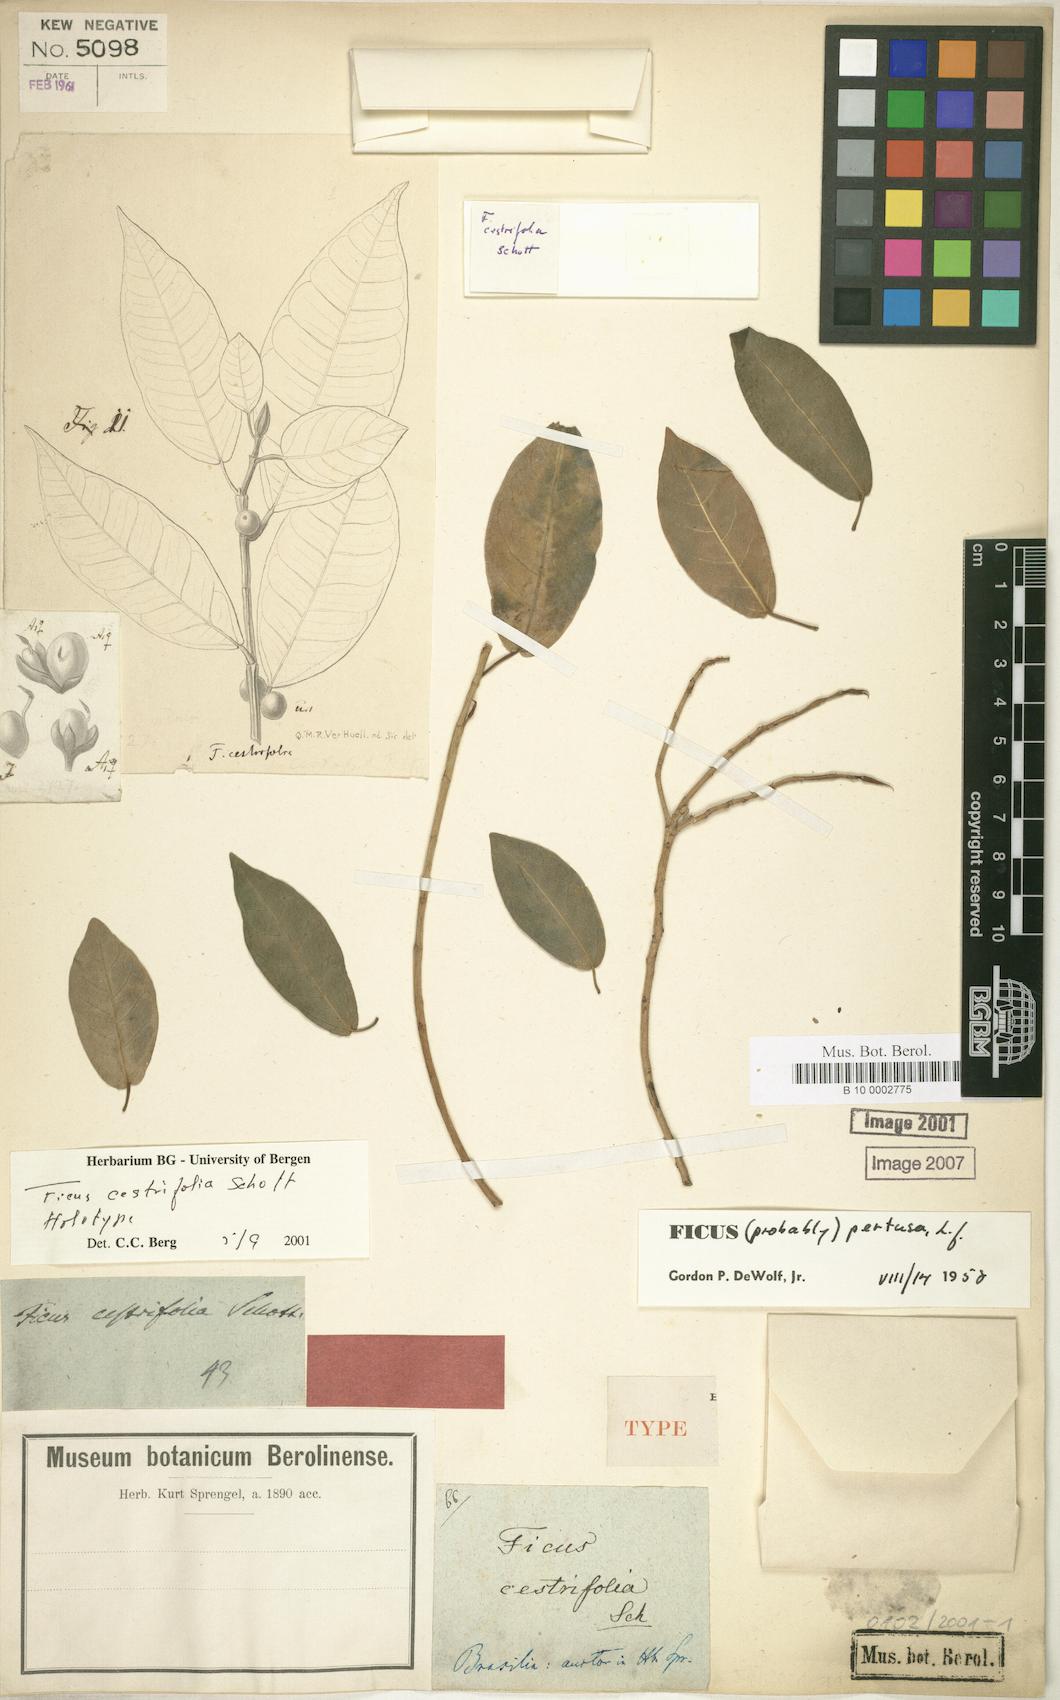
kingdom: Plantae
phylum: Tracheophyta
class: Magnoliopsida
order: Rosales
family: Moraceae
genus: Ficus
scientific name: Ficus cestrifolia
